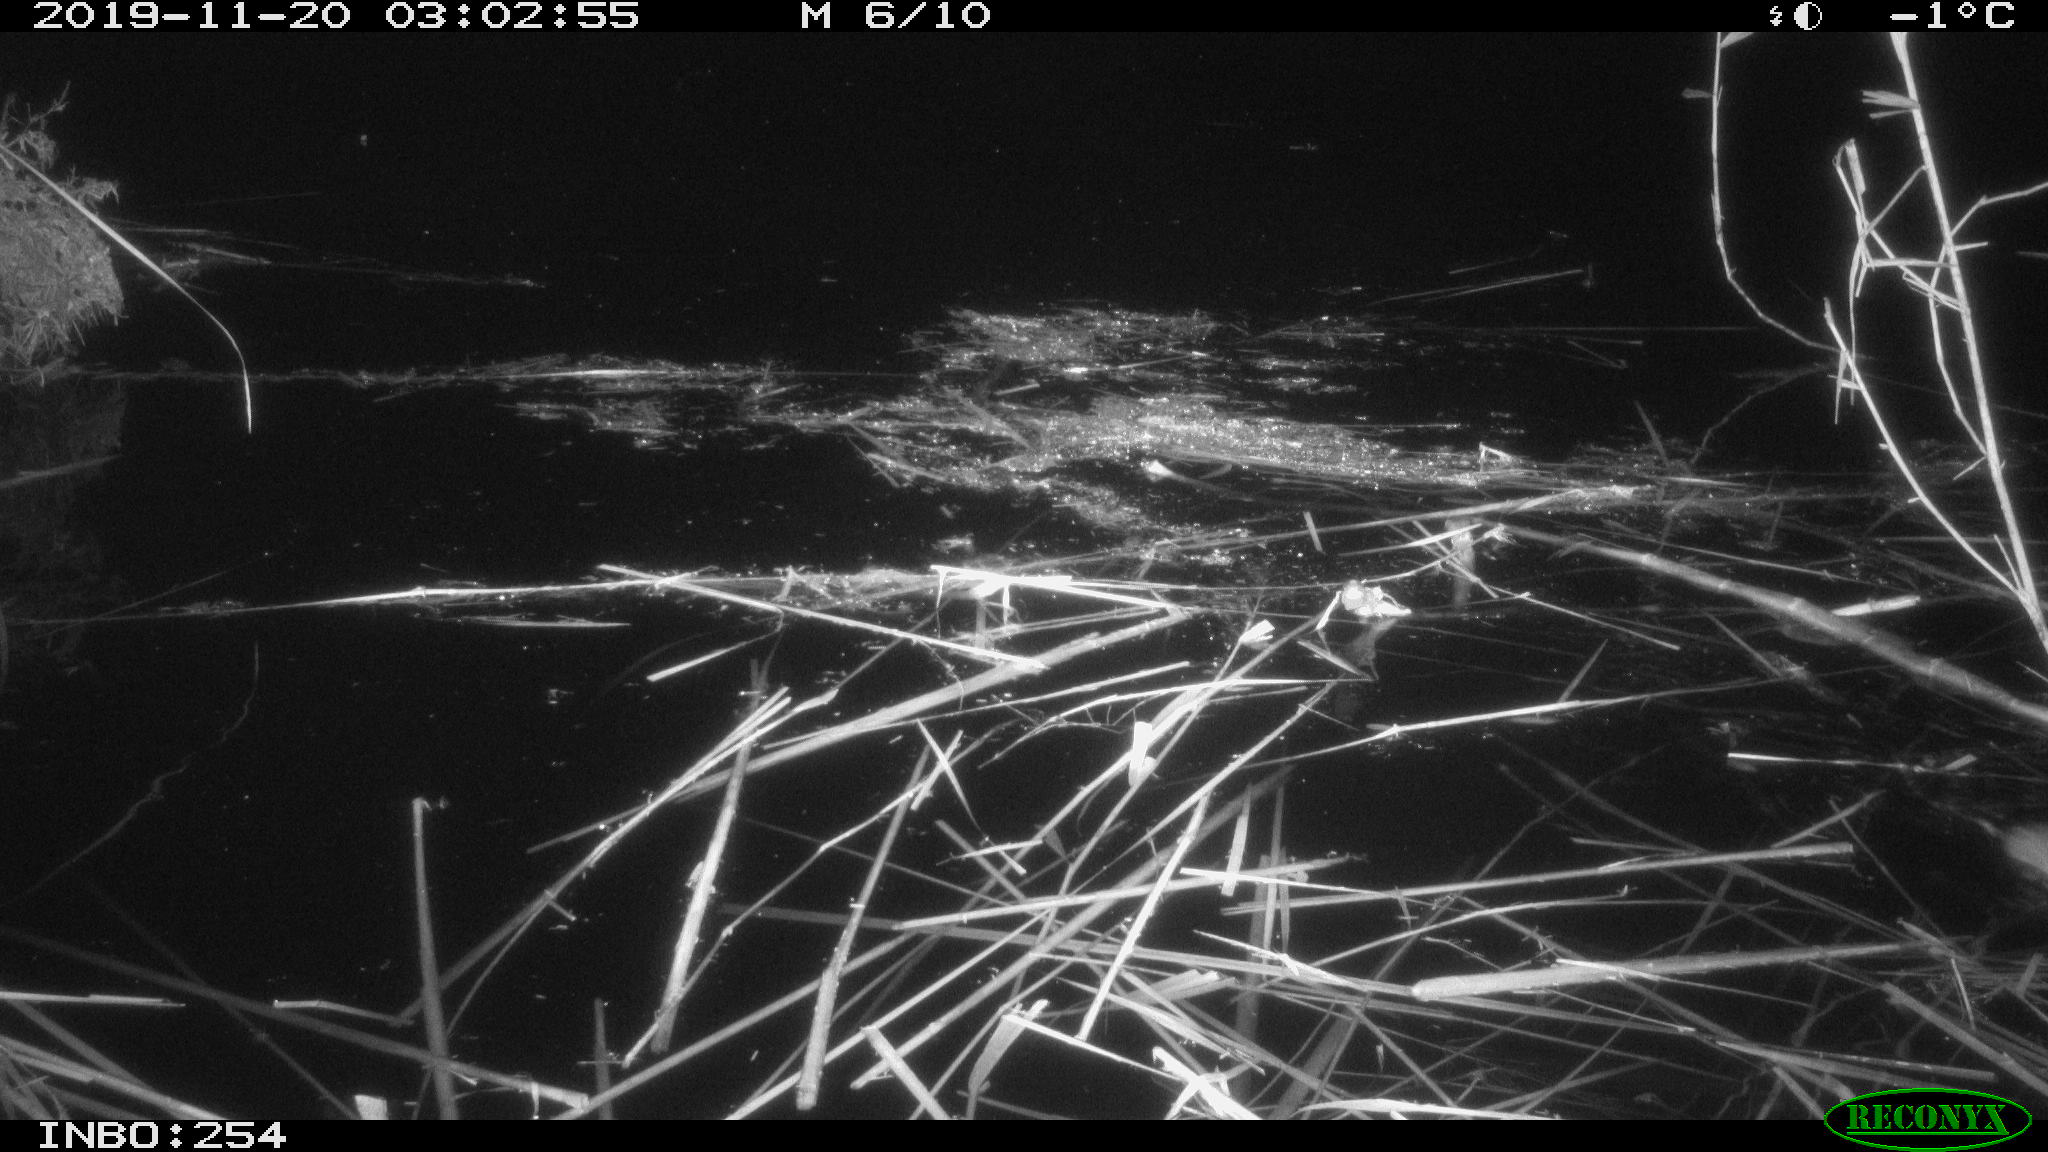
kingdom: Animalia
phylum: Chordata
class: Mammalia
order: Rodentia
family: Cricetidae
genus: Ondatra
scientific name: Ondatra zibethicus
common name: Muskrat
